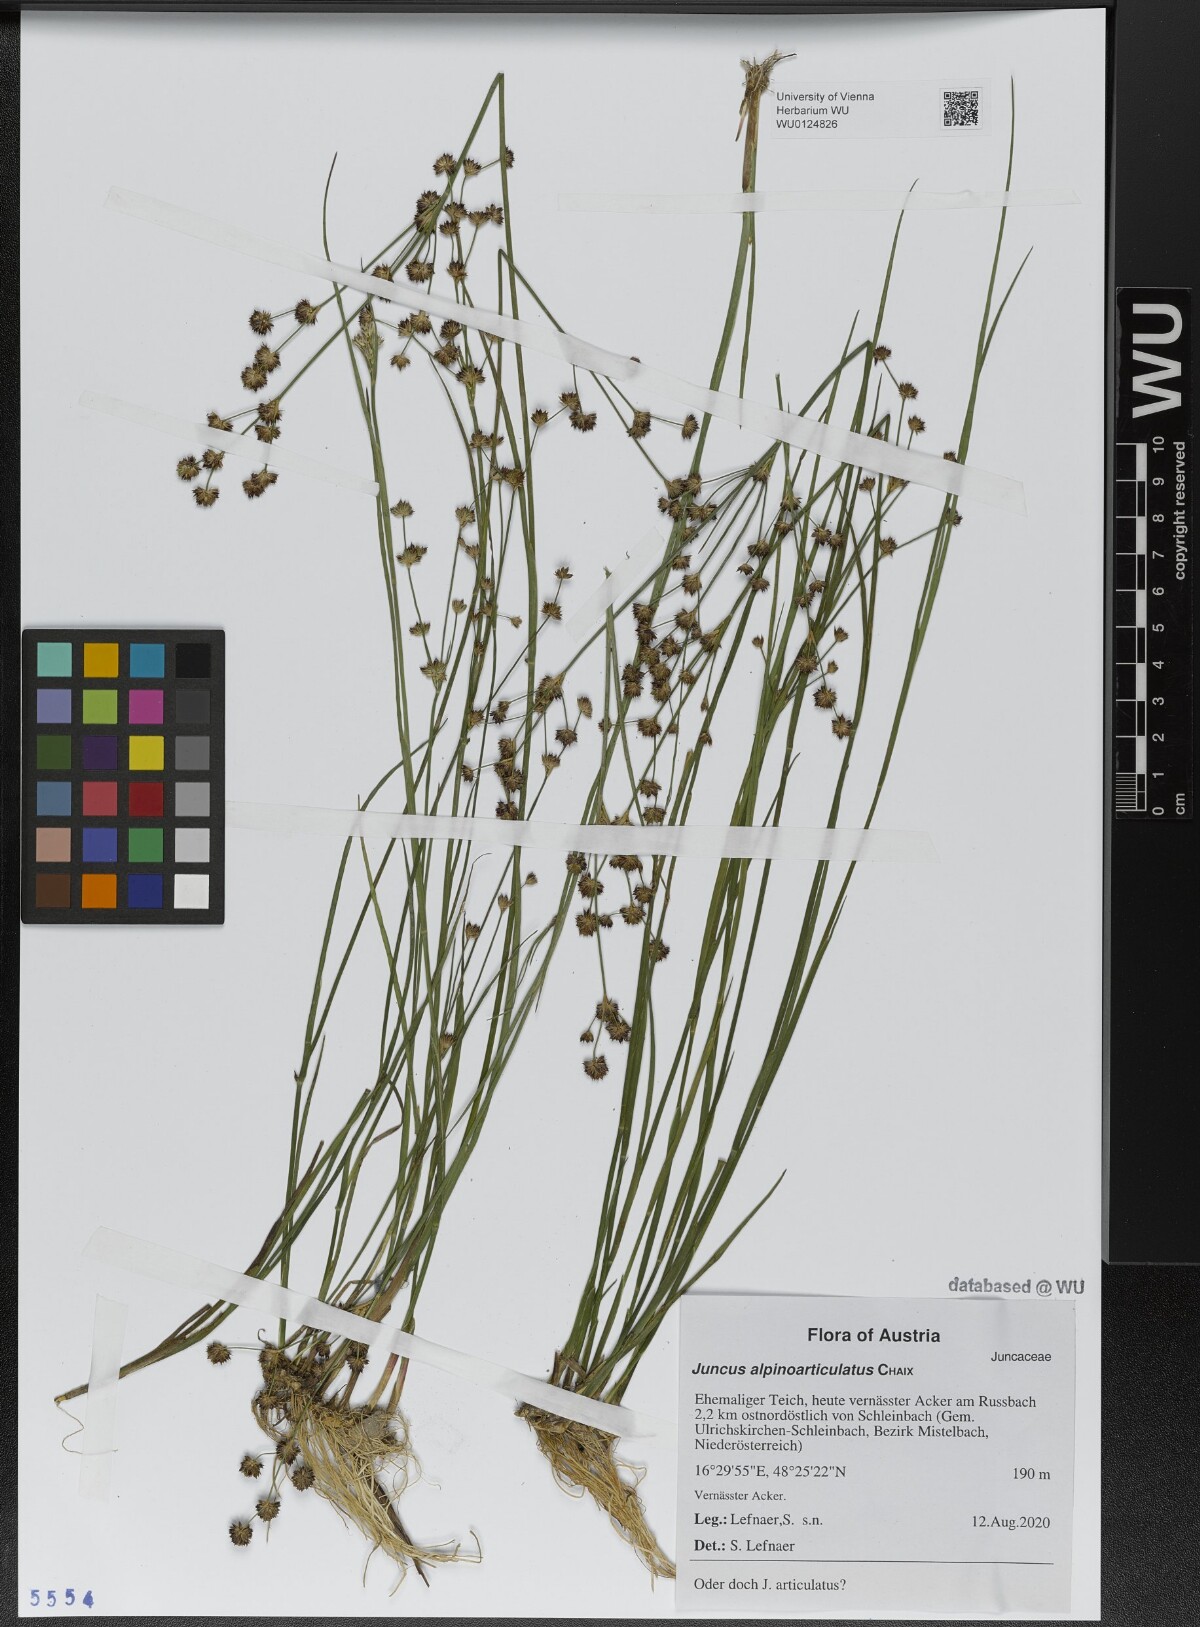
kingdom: Plantae
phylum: Tracheophyta
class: Liliopsida
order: Poales
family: Juncaceae
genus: Juncus
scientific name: Juncus alpinoarticulatus
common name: Alpine rush
